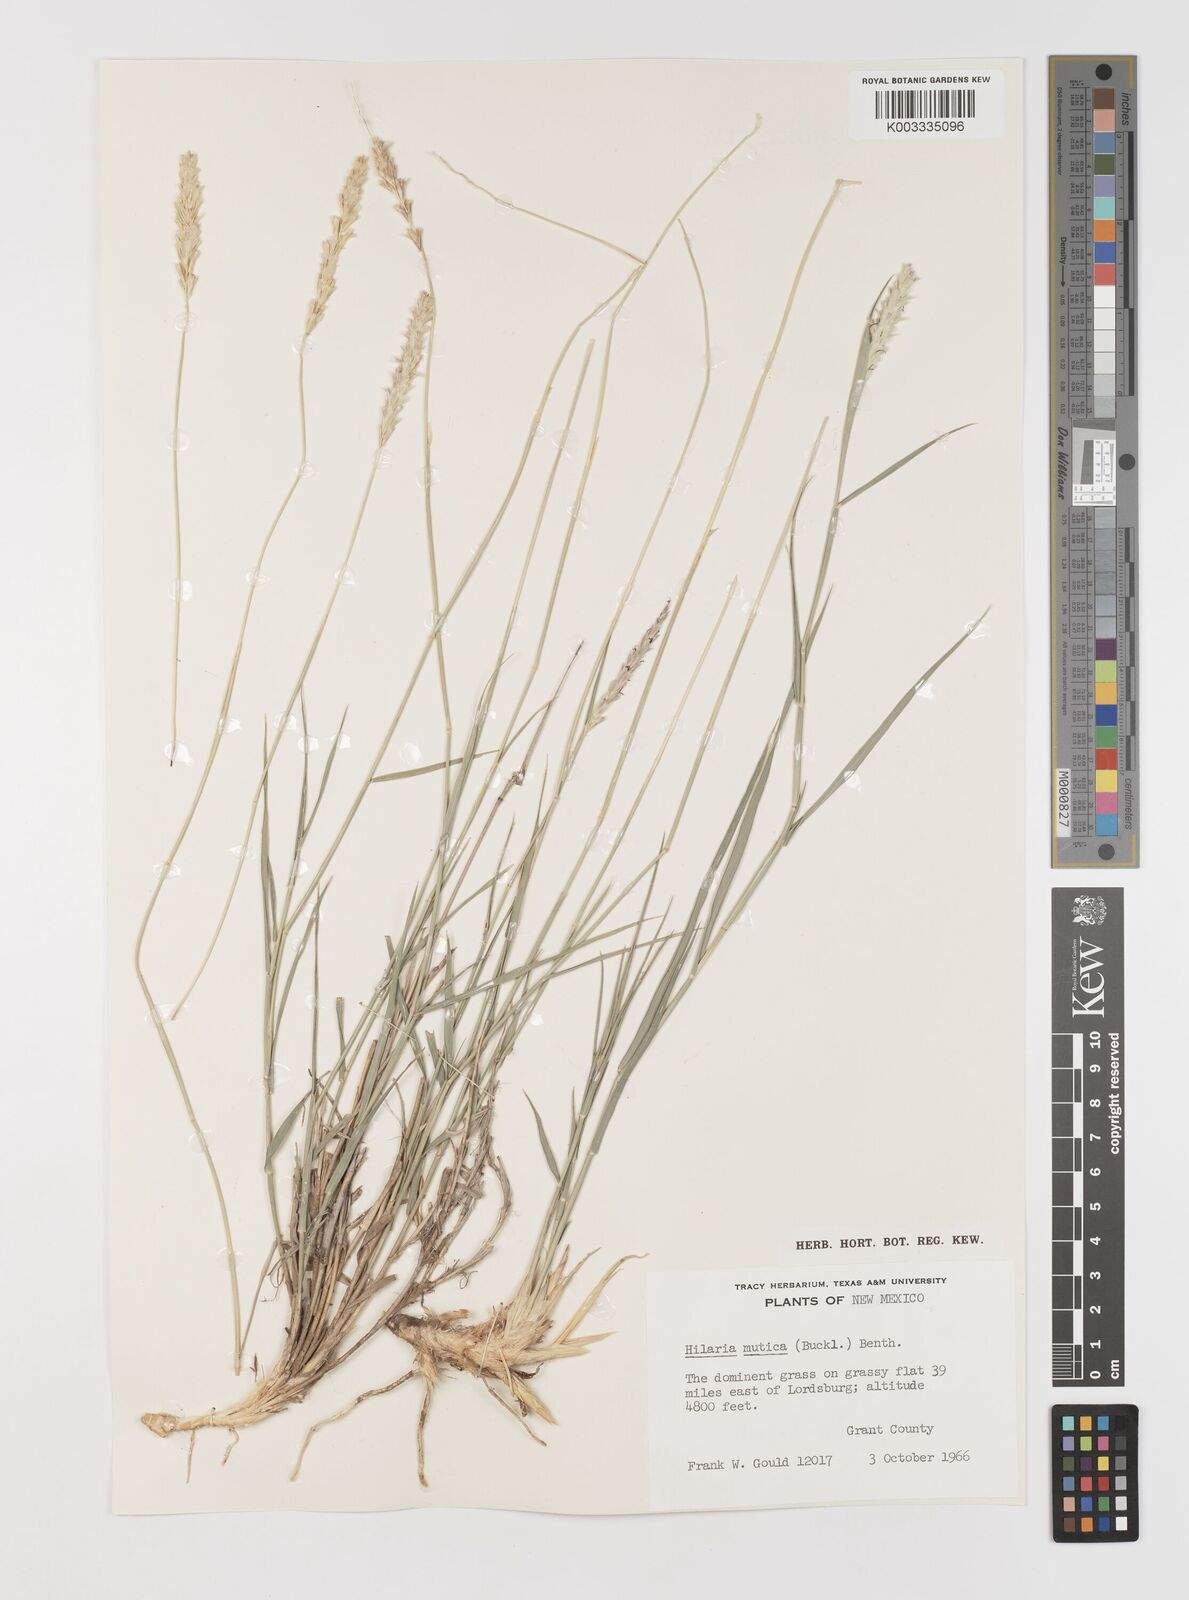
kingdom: Plantae
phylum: Tracheophyta
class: Liliopsida
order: Poales
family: Poaceae
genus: Hilaria
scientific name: Hilaria mutica
